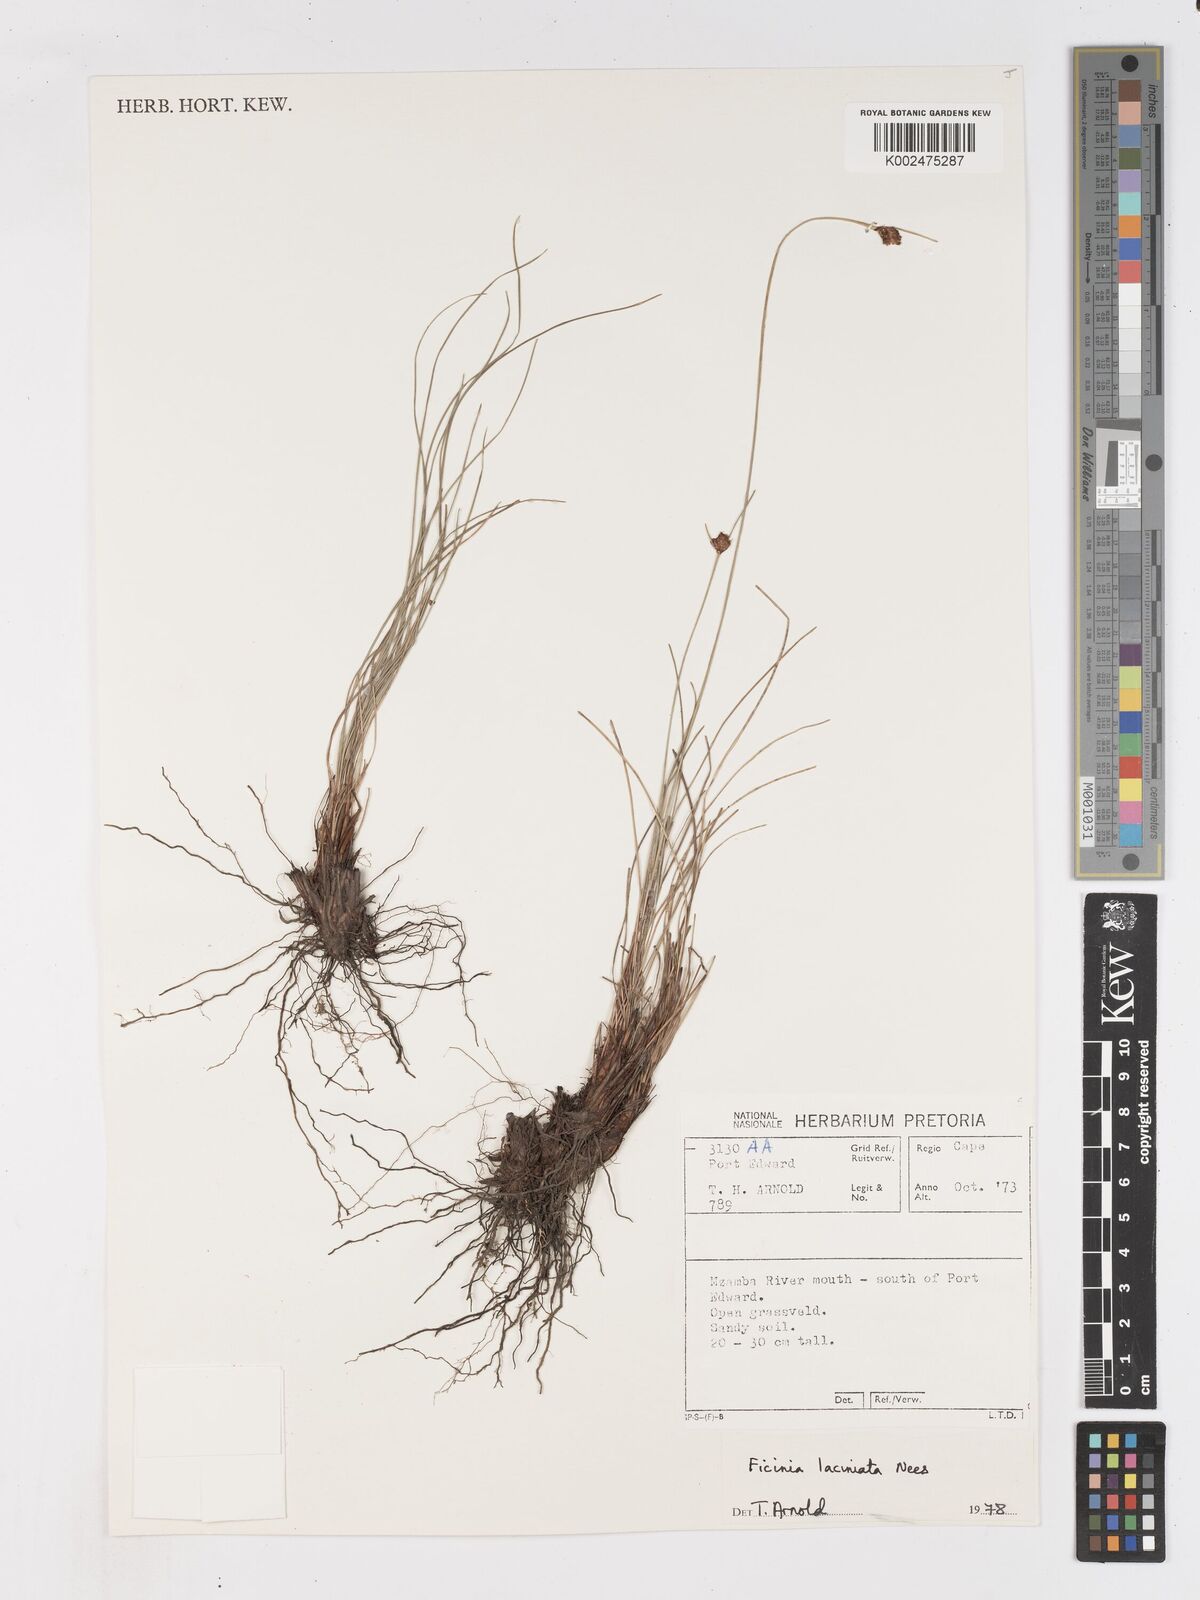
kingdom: Plantae
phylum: Tracheophyta
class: Liliopsida
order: Poales
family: Cyperaceae
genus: Ficinia
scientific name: Ficinia laciniata
